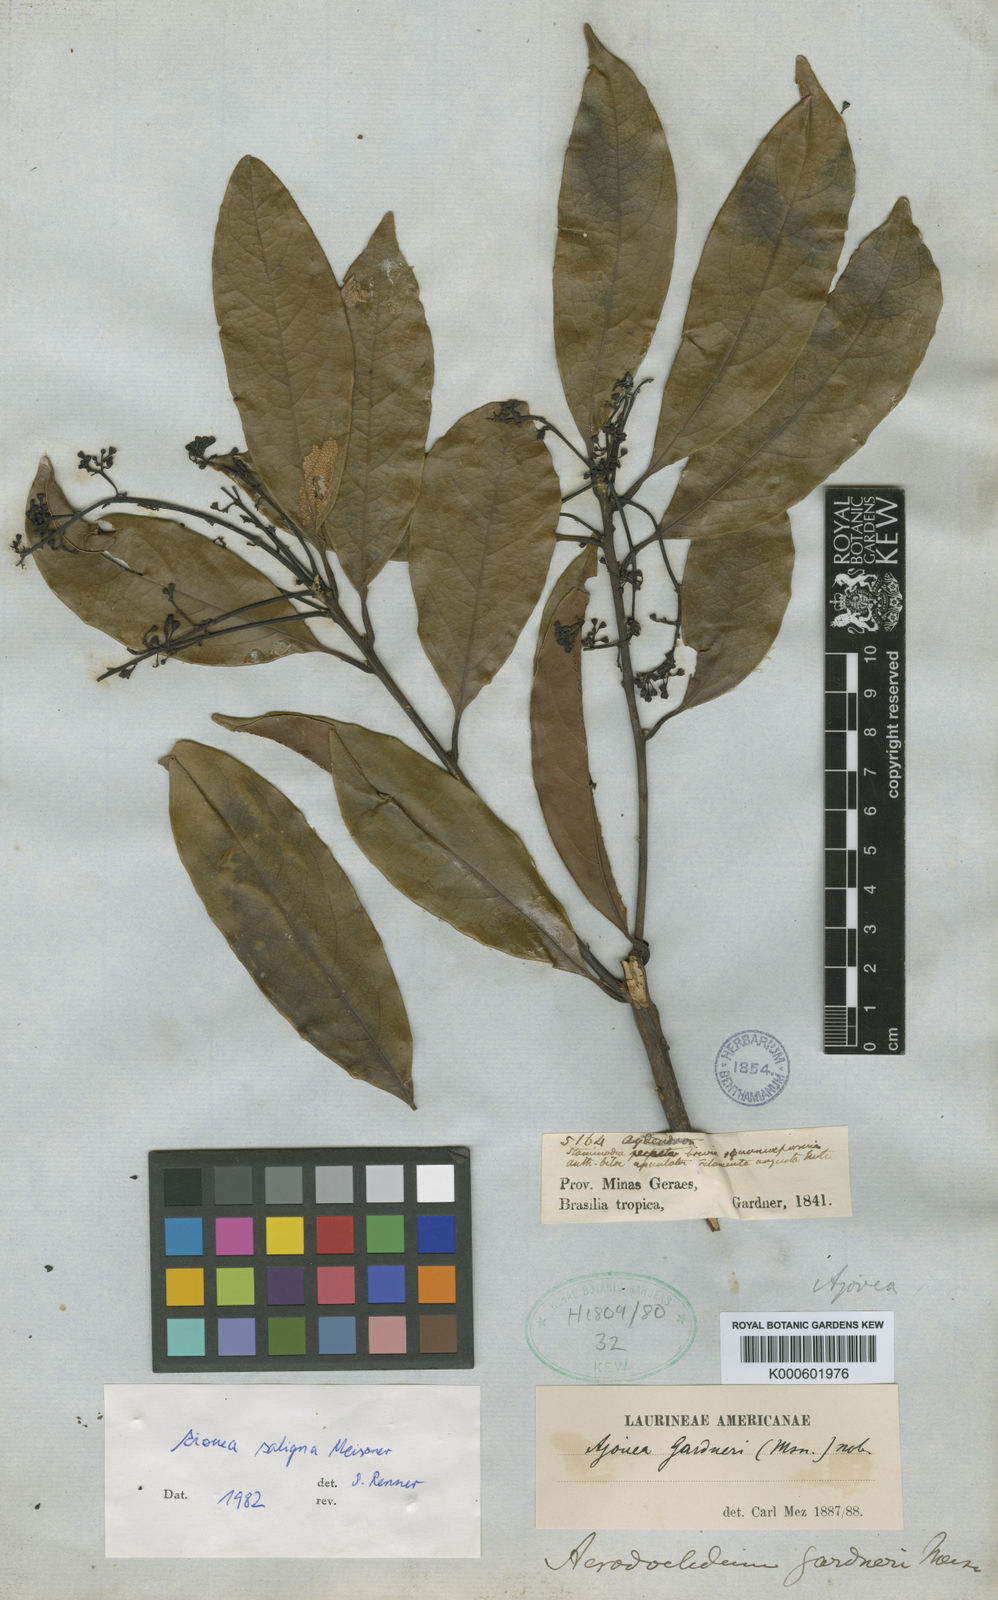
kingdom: Plantae
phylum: Tracheophyta
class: Magnoliopsida
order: Laurales
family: Lauraceae
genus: Aiouea
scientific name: Aiouea saligna
